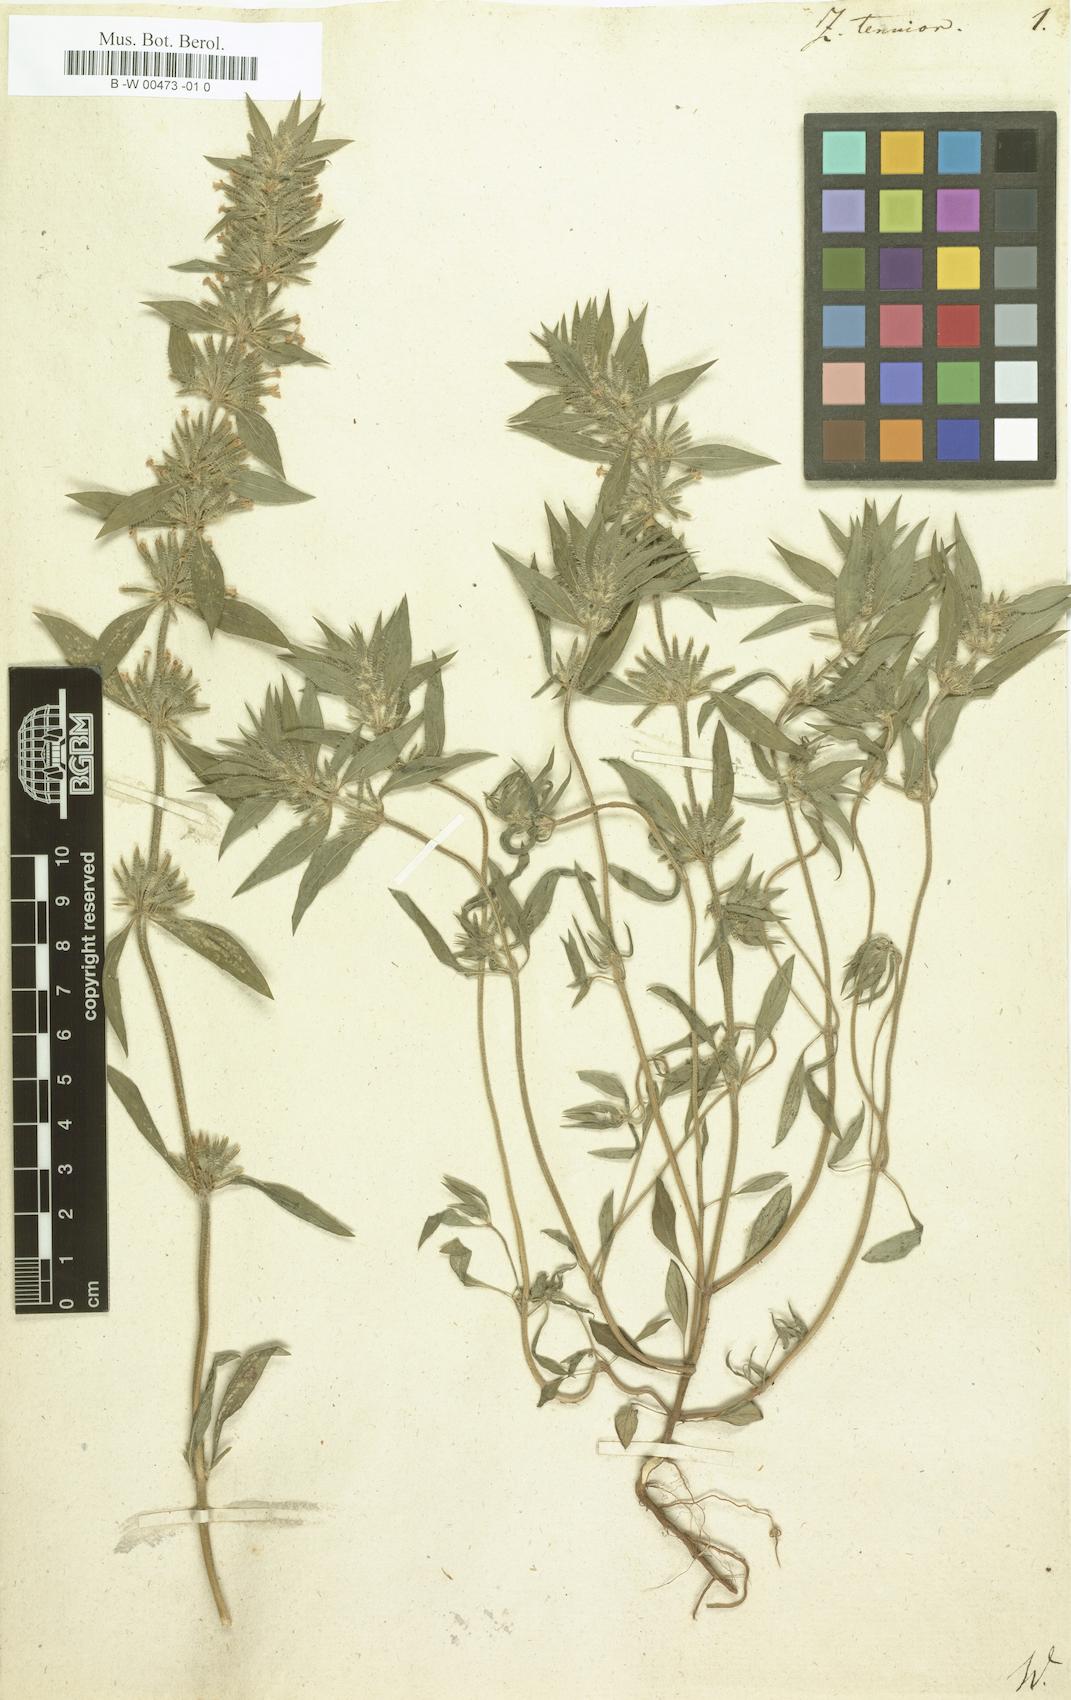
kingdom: Plantae
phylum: Tracheophyta
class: Magnoliopsida
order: Lamiales
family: Lamiaceae
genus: Ziziphora
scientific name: Ziziphora tenuior
